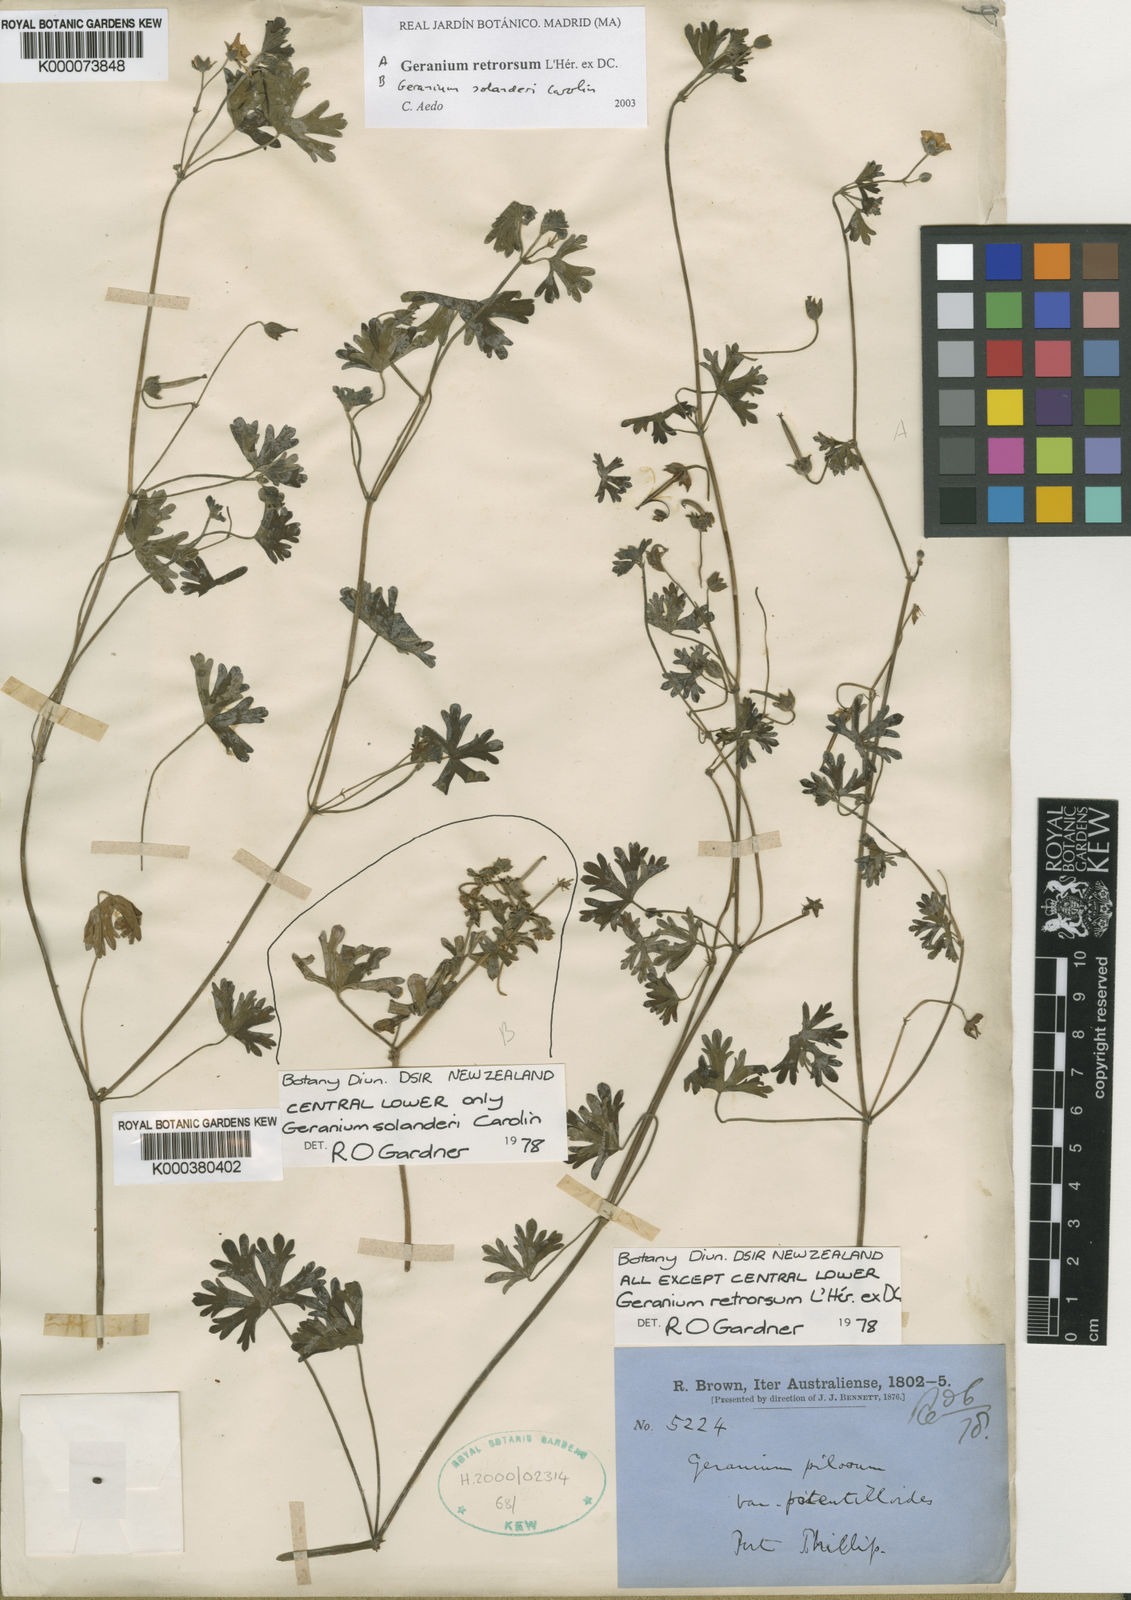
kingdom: Plantae
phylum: Tracheophyta
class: Magnoliopsida
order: Geraniales
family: Geraniaceae
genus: Geranium
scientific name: Geranium
